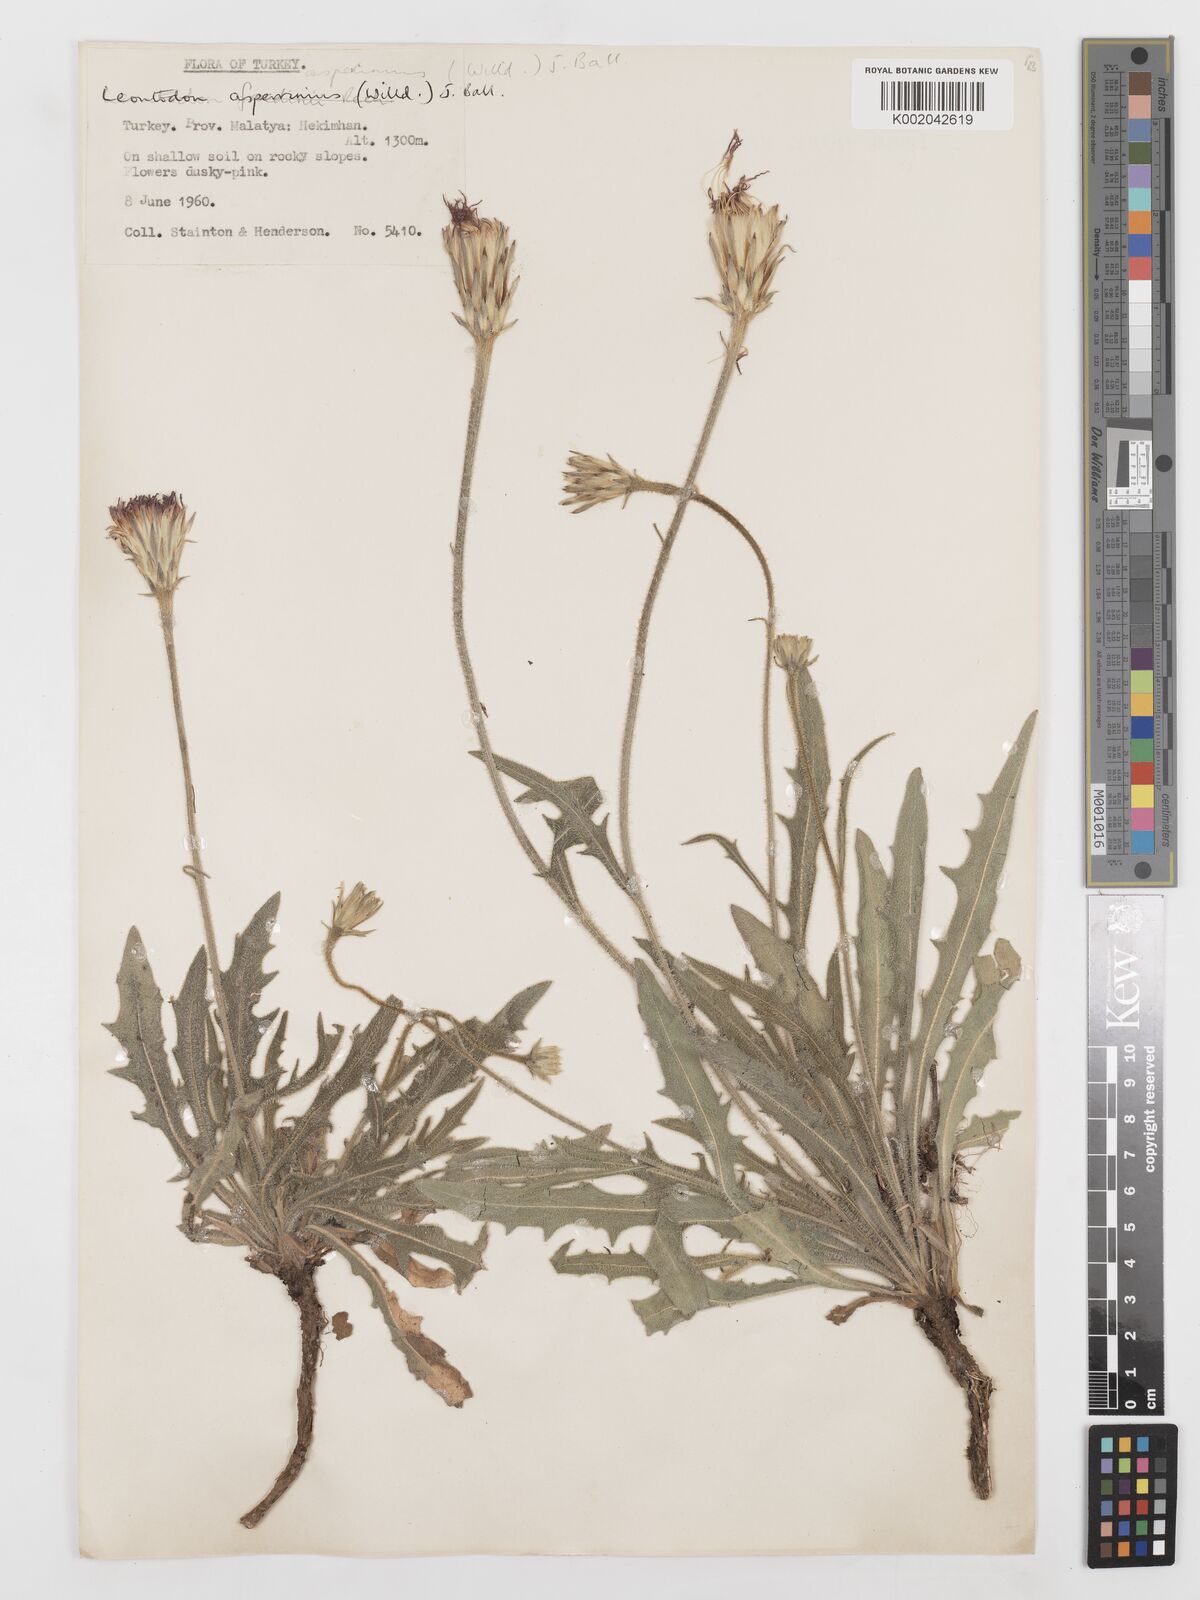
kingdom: Plantae
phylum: Tracheophyta
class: Magnoliopsida
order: Asterales
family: Asteraceae
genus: Leontodon
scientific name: Leontodon
